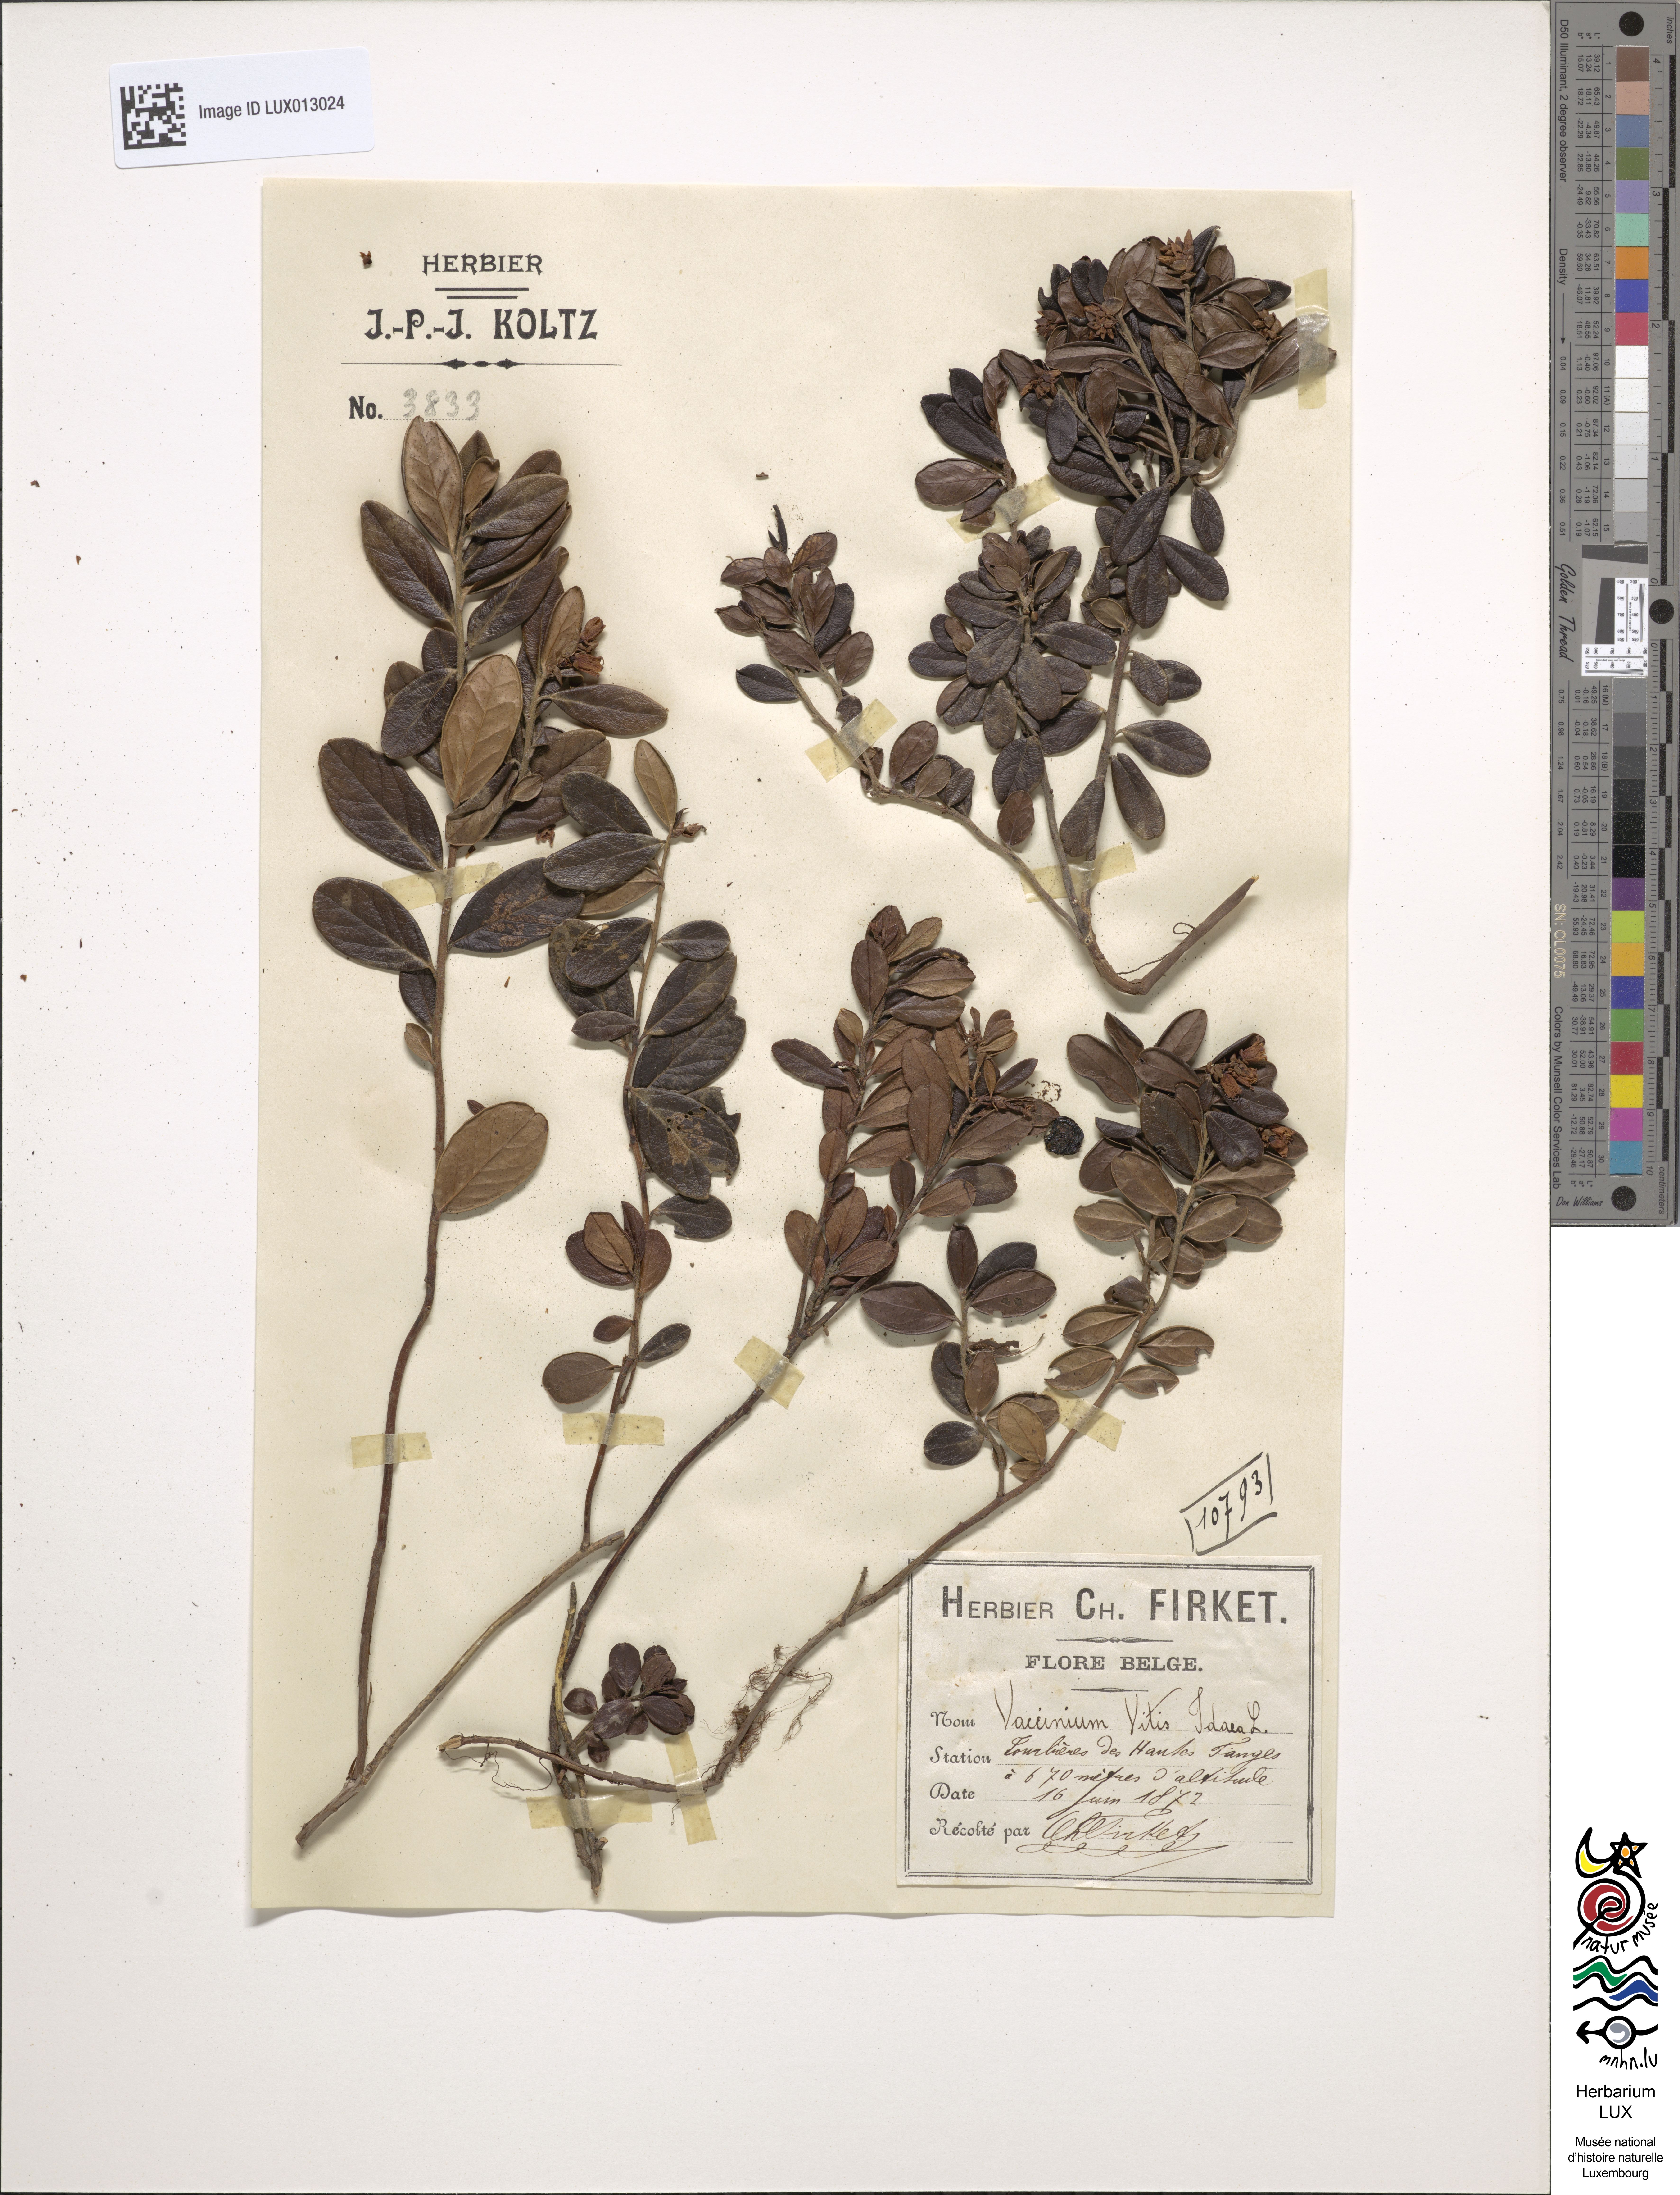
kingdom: Plantae
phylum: Tracheophyta
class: Magnoliopsida
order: Ericales
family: Ericaceae
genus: Vaccinium
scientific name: Vaccinium vitis-idaea
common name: Cowberry
